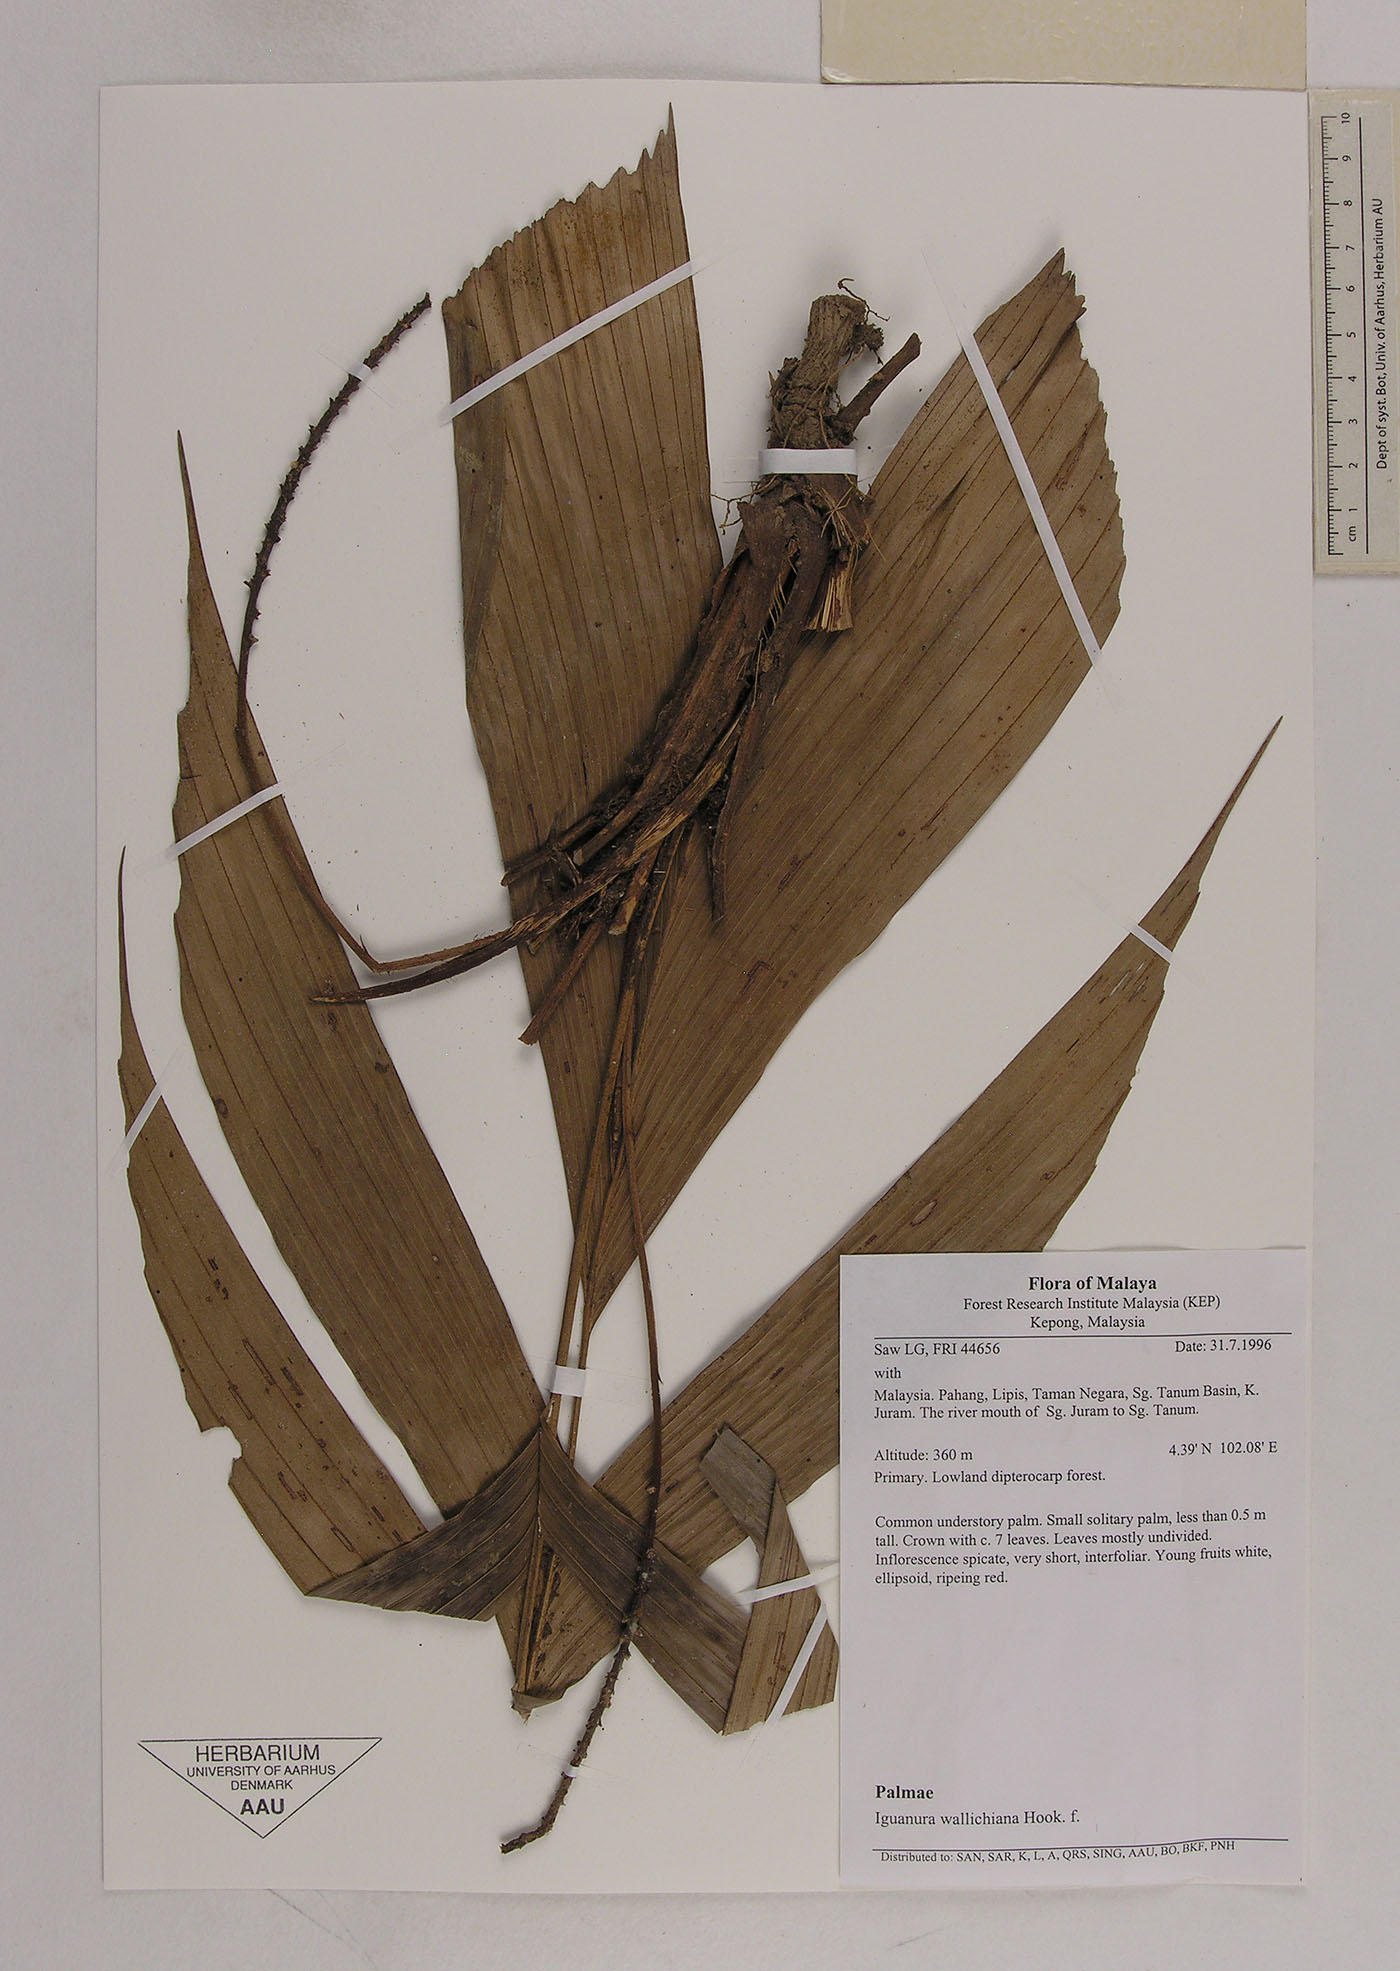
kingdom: Plantae
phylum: Tracheophyta
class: Liliopsida
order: Arecales
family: Arecaceae
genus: Iguanura
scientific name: Iguanura wallichiana
